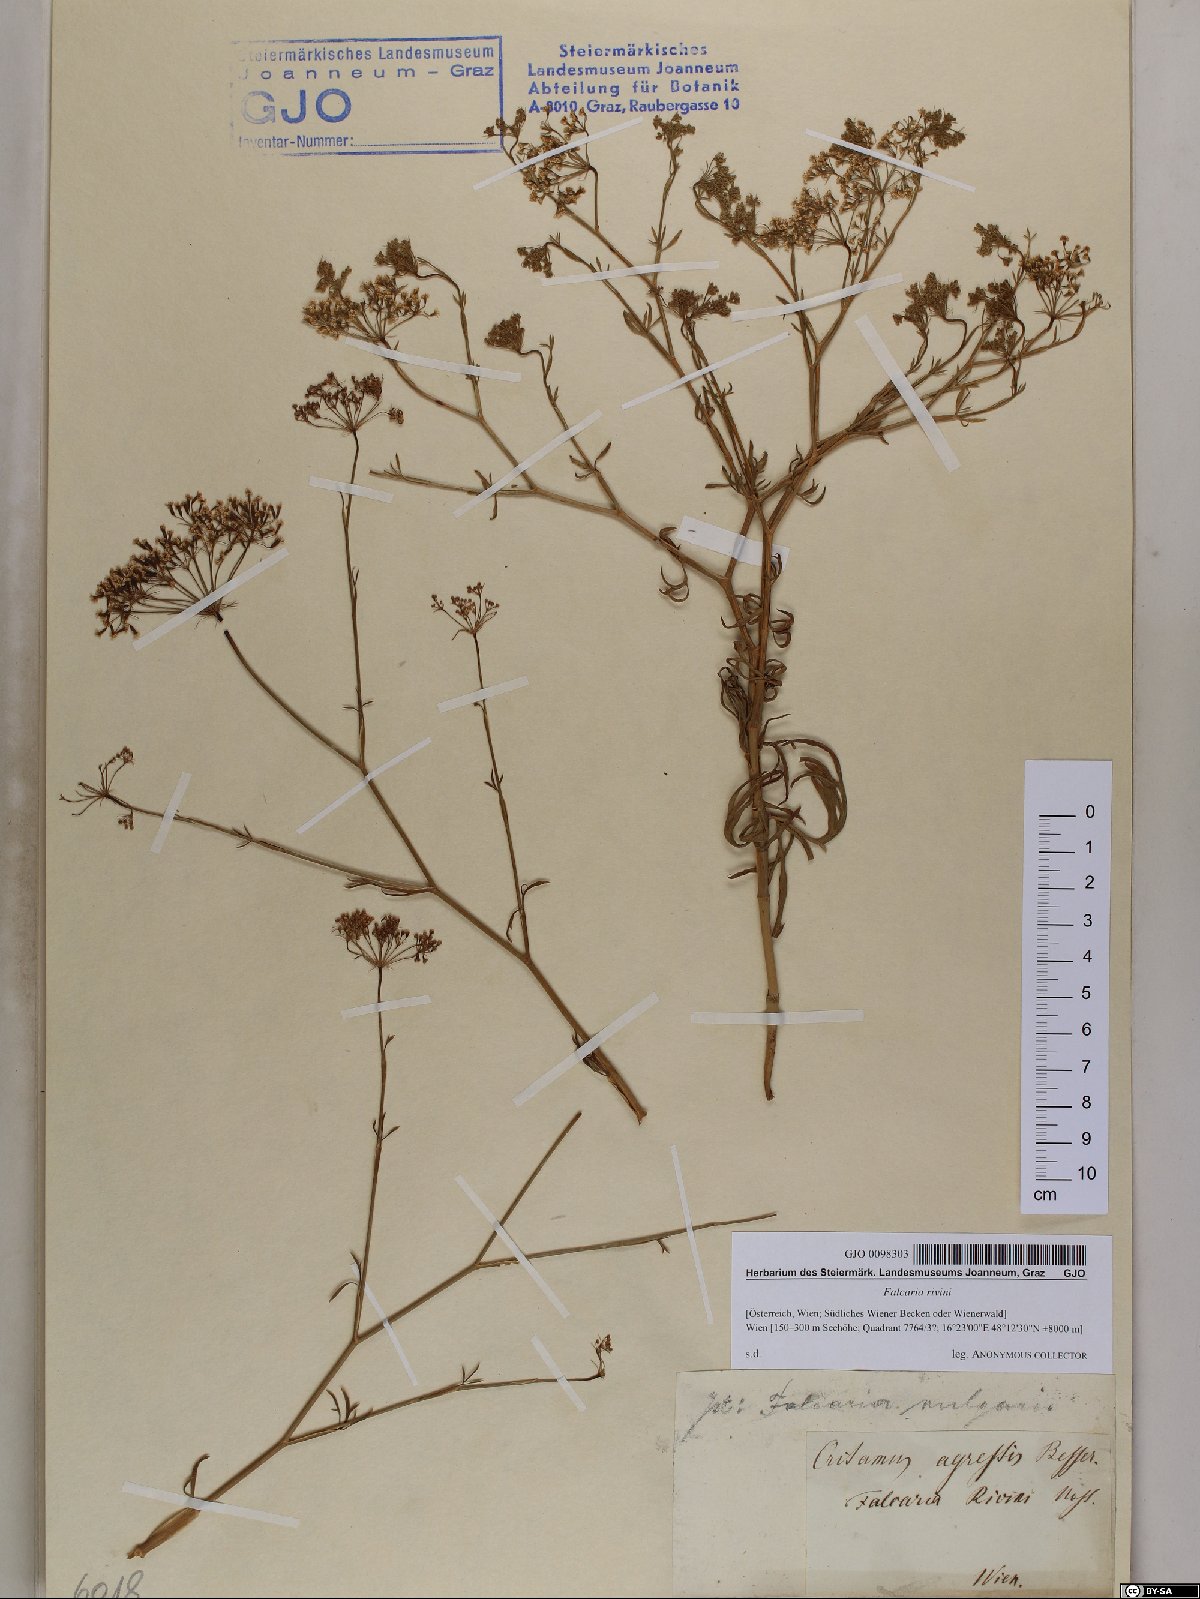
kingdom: Plantae
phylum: Tracheophyta
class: Magnoliopsida
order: Apiales
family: Apiaceae
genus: Falcaria
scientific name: Falcaria vulgaris
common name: Longleaf
